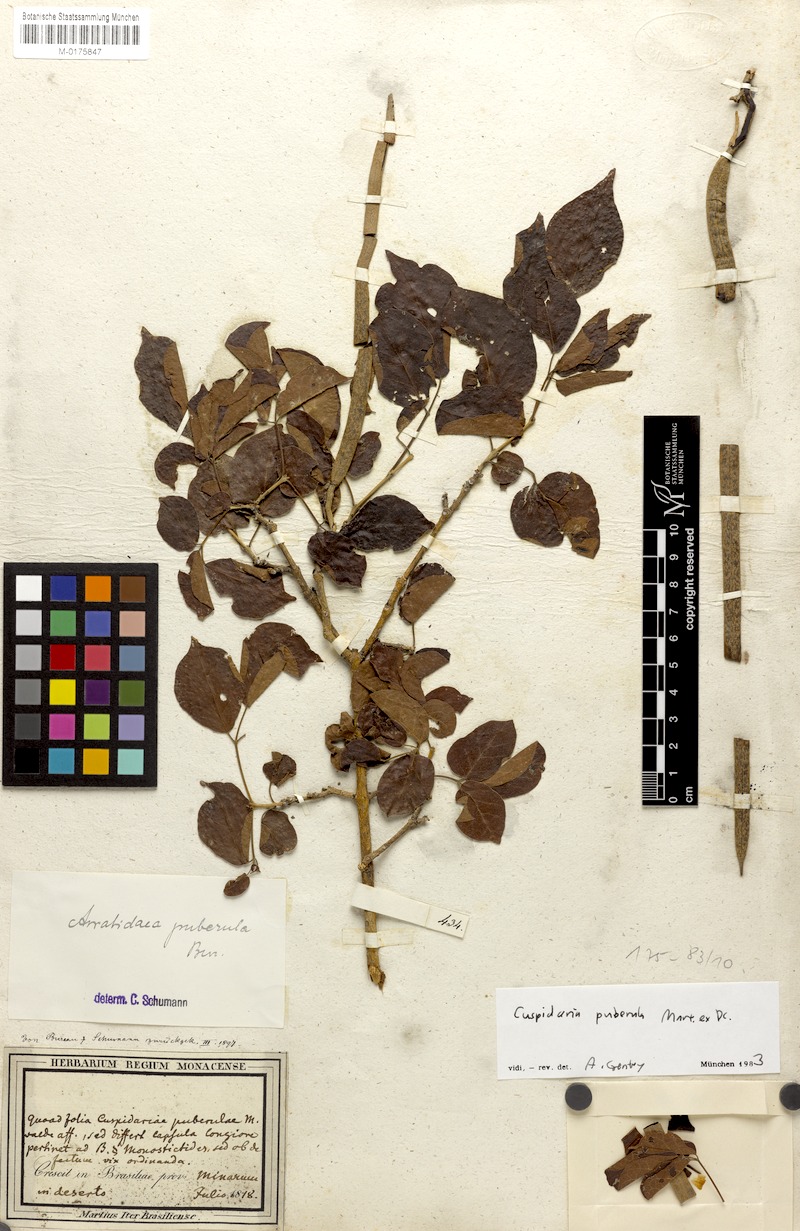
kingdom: Plantae
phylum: Tracheophyta
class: Magnoliopsida
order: Lamiales
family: Bignoniaceae
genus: Cuspidaria
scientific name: Cuspidaria simplicifolia
